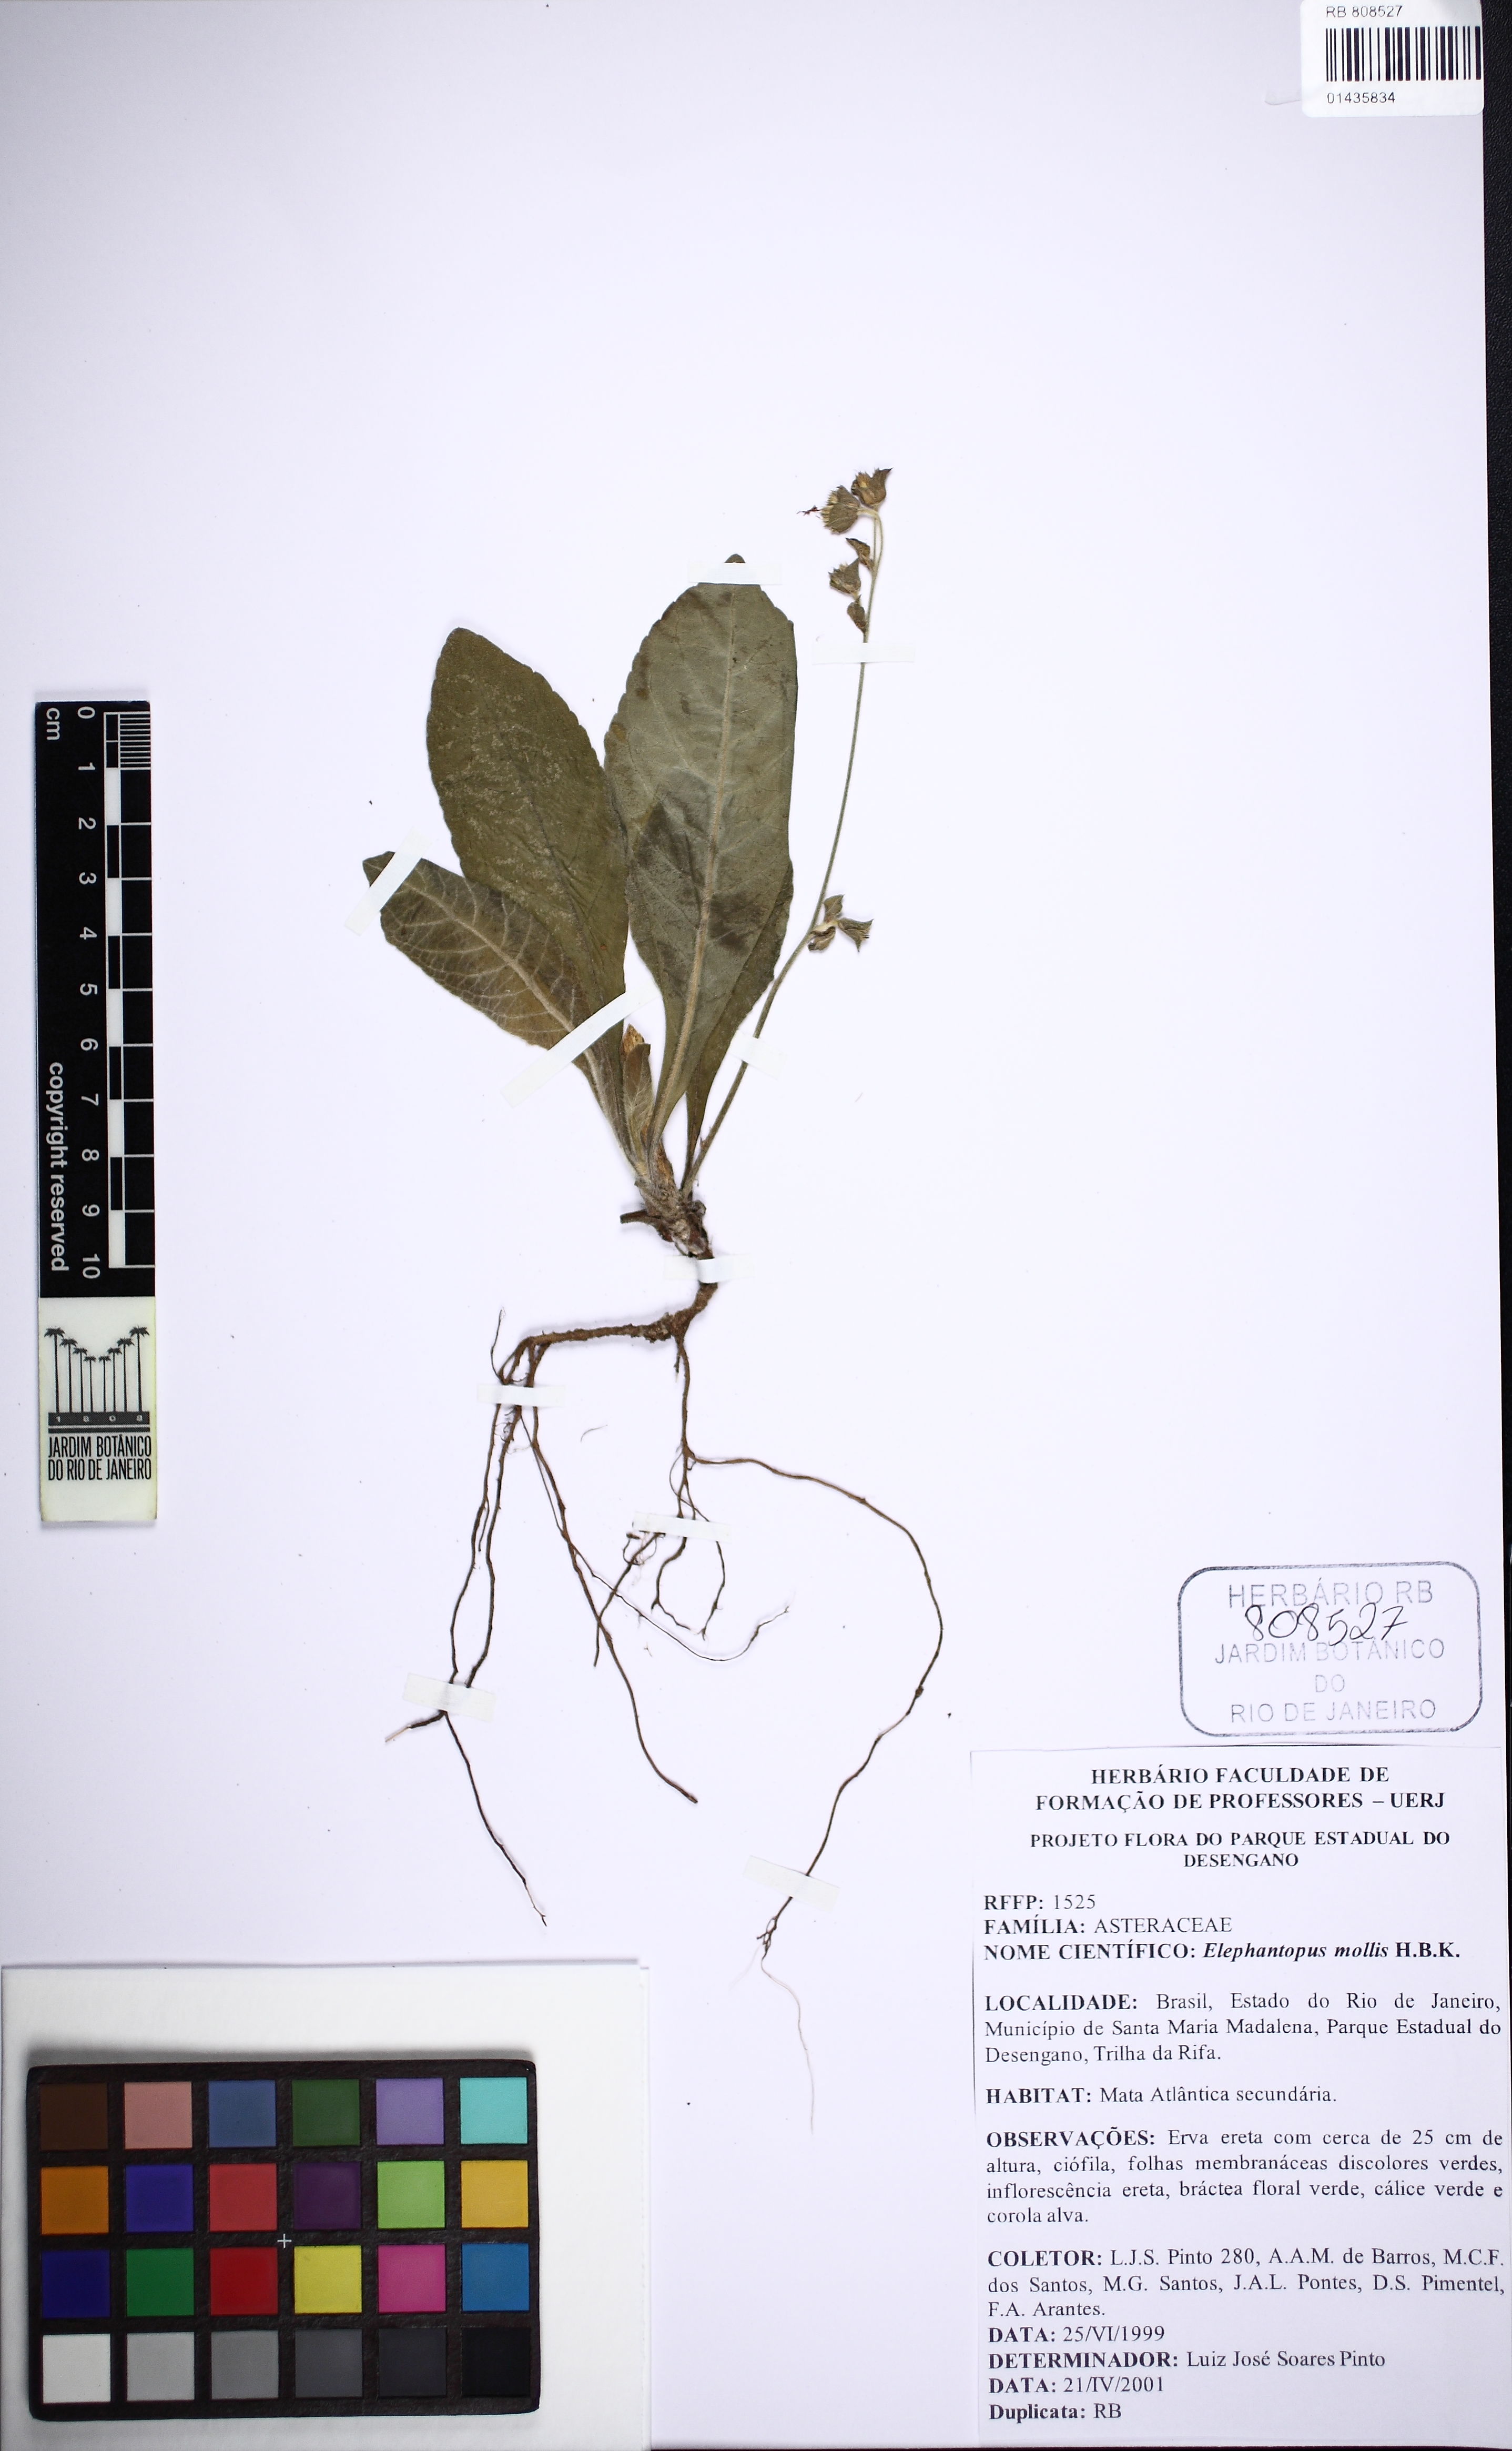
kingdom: Plantae
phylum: Tracheophyta
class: Magnoliopsida
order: Asterales
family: Asteraceae
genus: Elephantopus
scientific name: Elephantopus mollis
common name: Soft elephantsfoot
